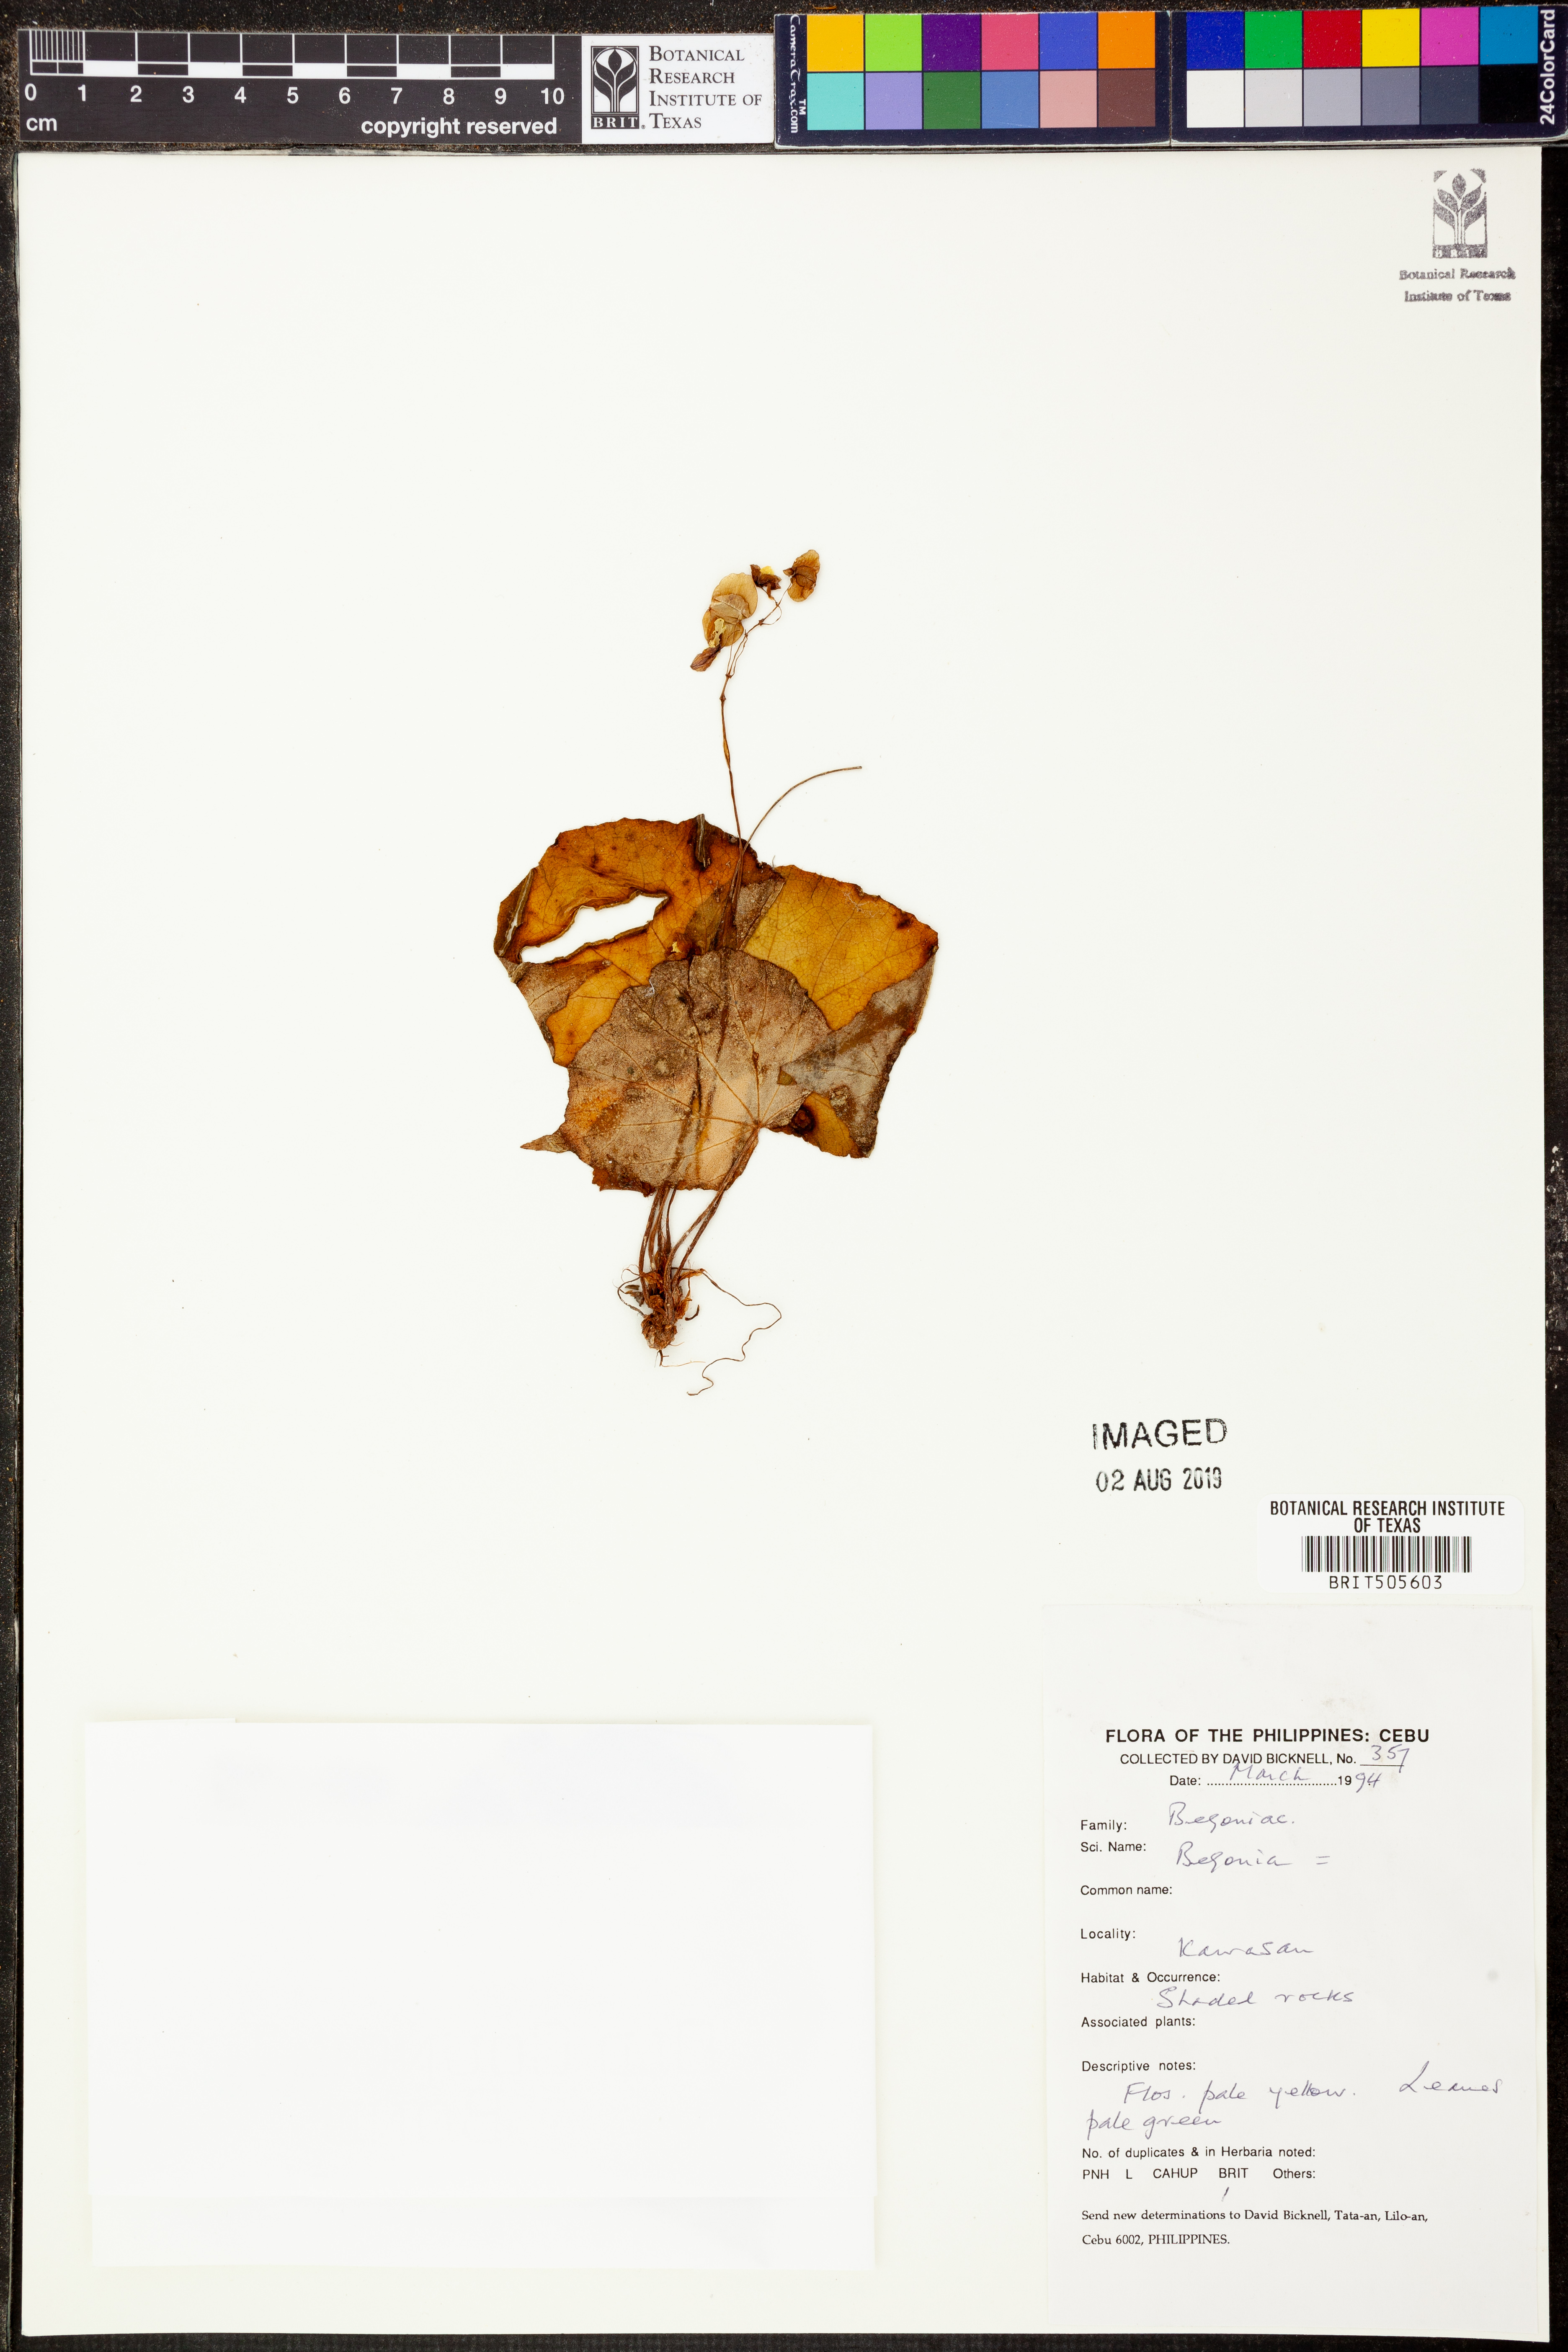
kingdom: Plantae
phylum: Tracheophyta
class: Magnoliopsida
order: Cucurbitales
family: Begoniaceae
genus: Begonia
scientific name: Begonia
